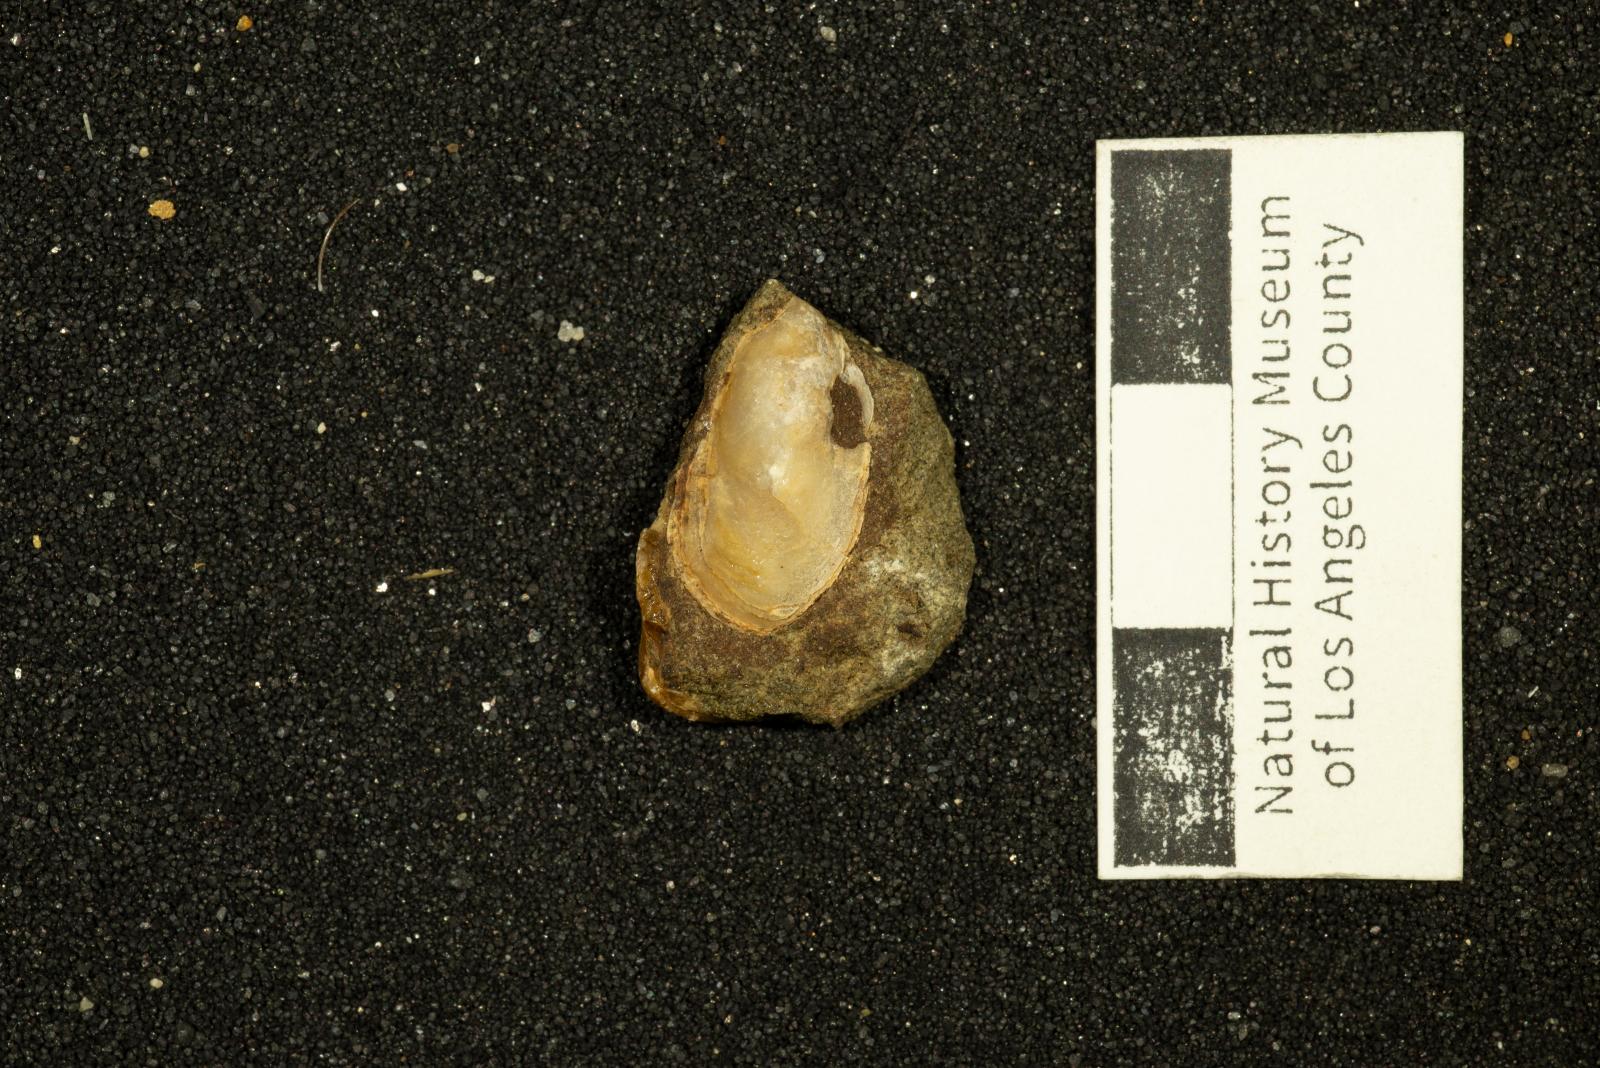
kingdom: Animalia
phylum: Mollusca
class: Bivalvia
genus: Phygraea
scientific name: Phygraea
